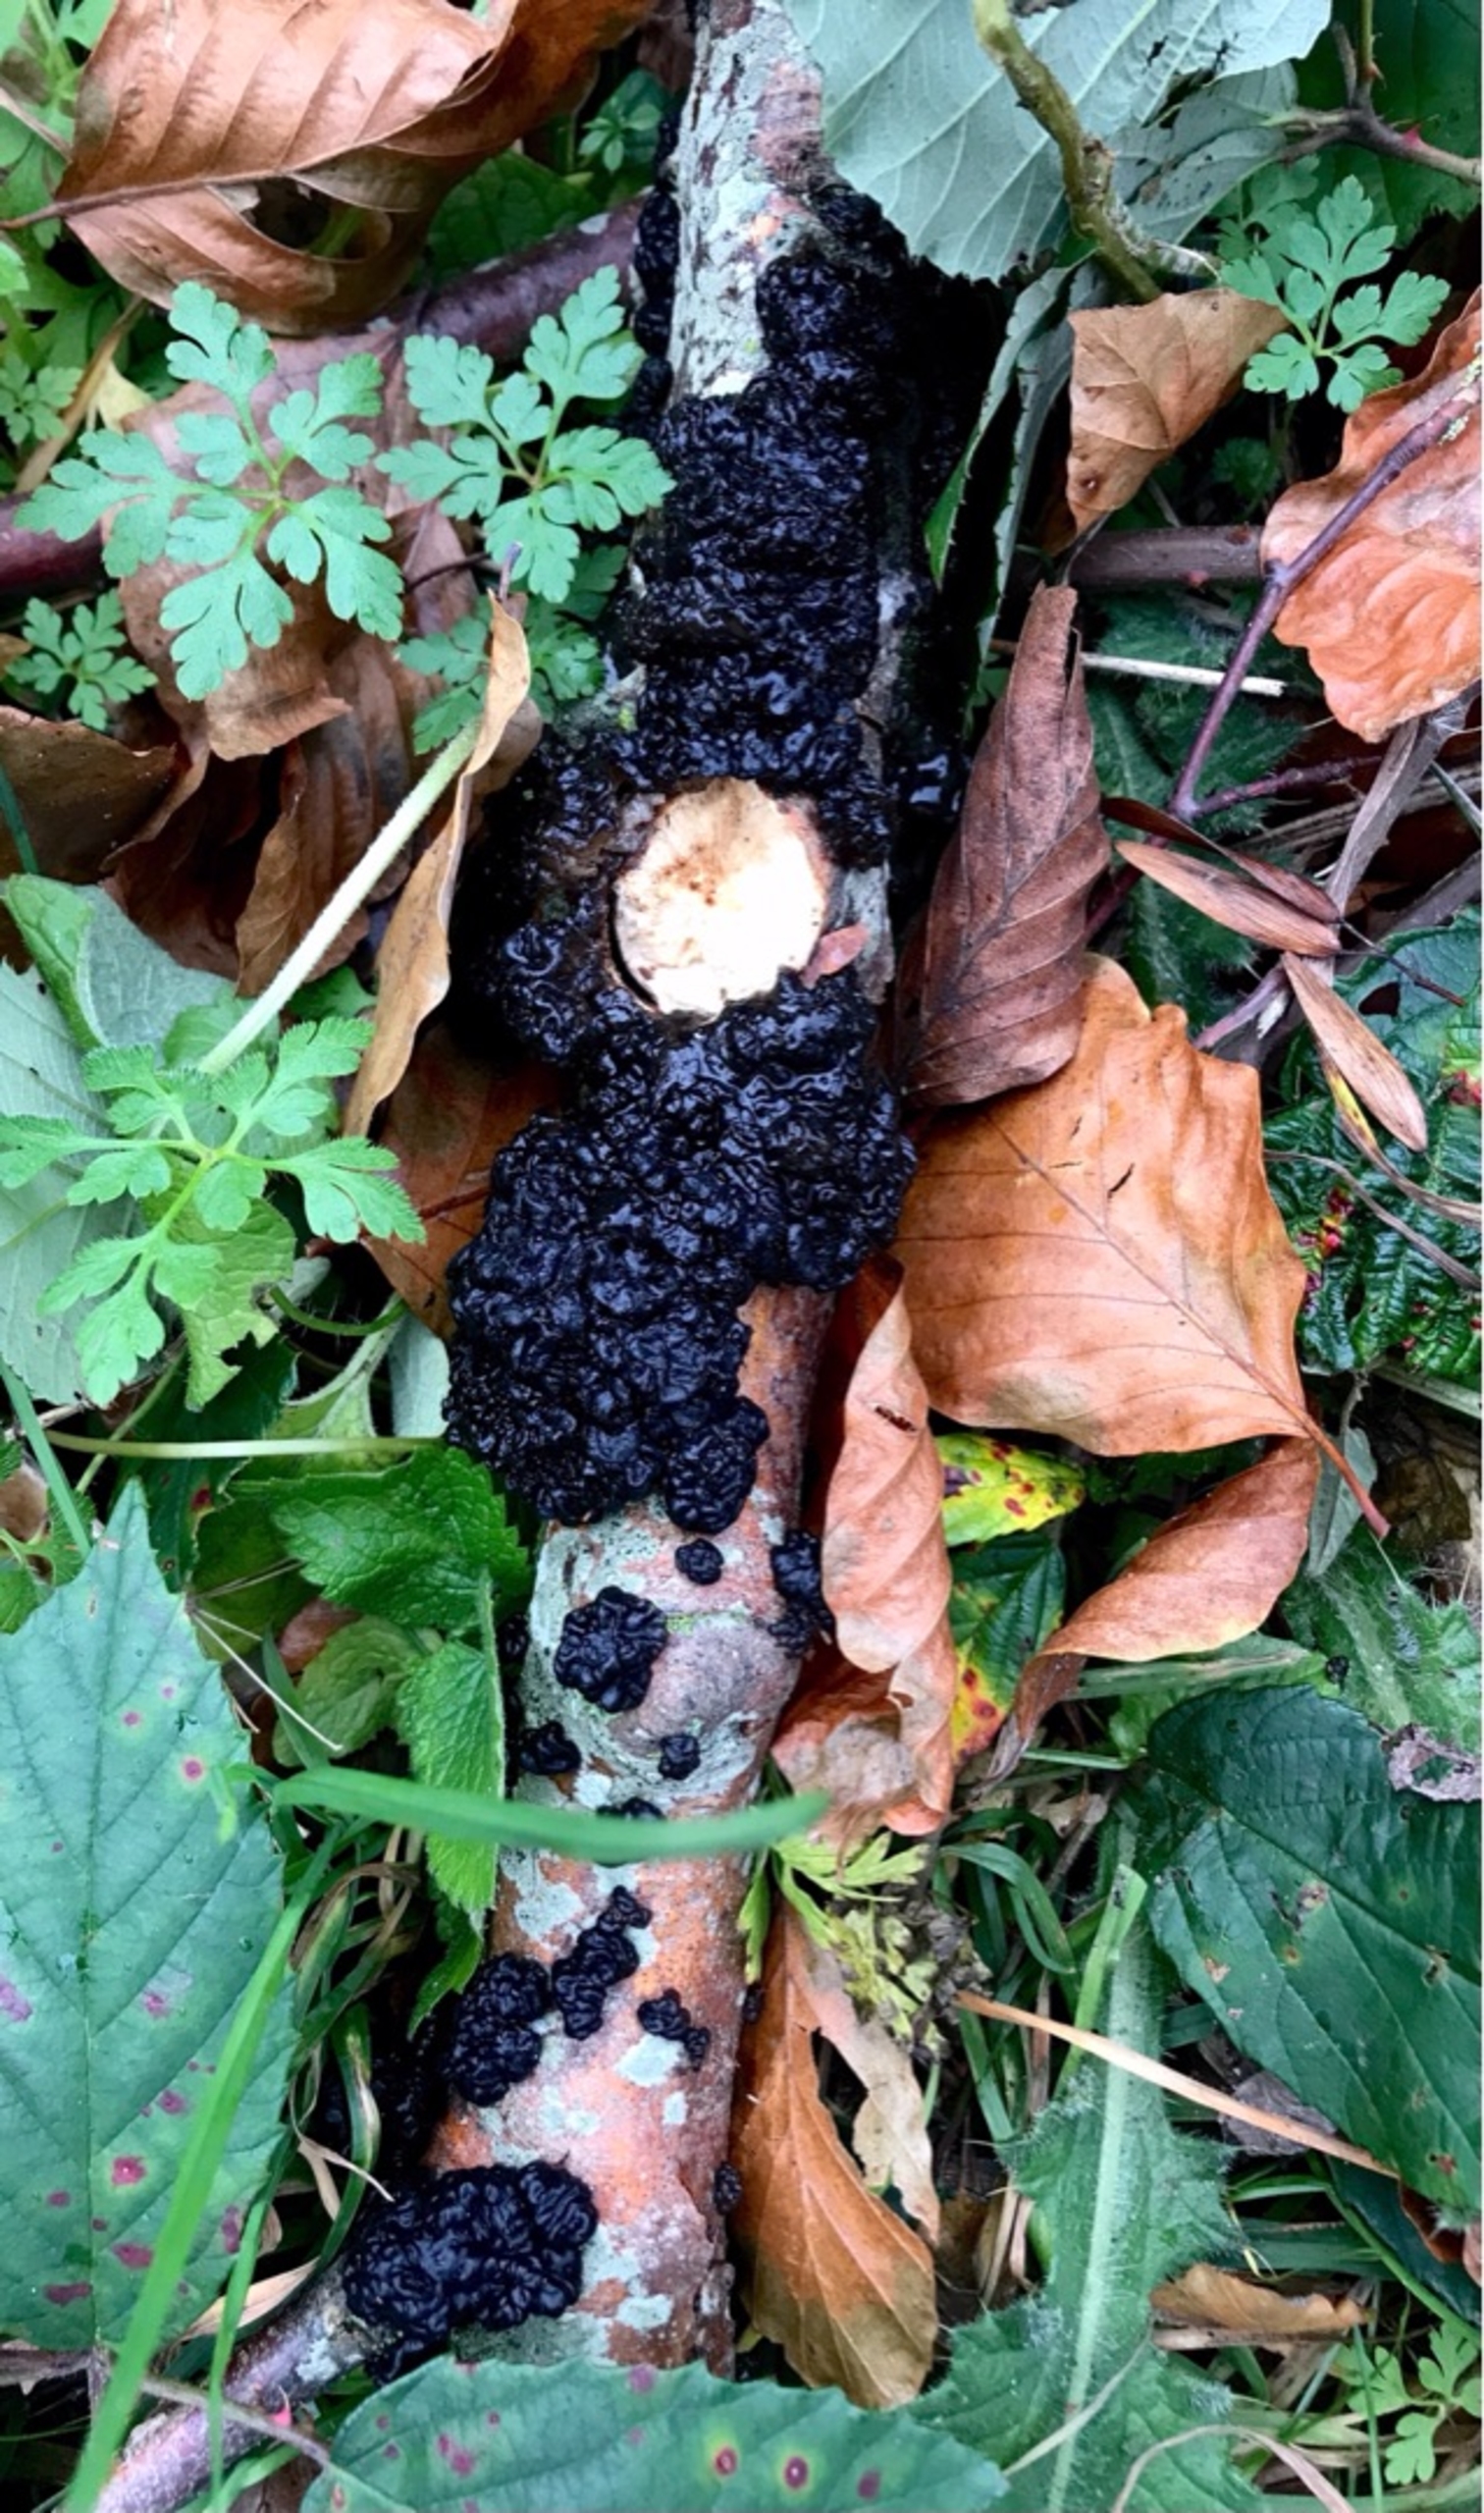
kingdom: Fungi
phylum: Basidiomycota
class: Agaricomycetes
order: Auriculariales
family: Auriculariaceae
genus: Exidia
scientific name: Exidia
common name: Bævretop
